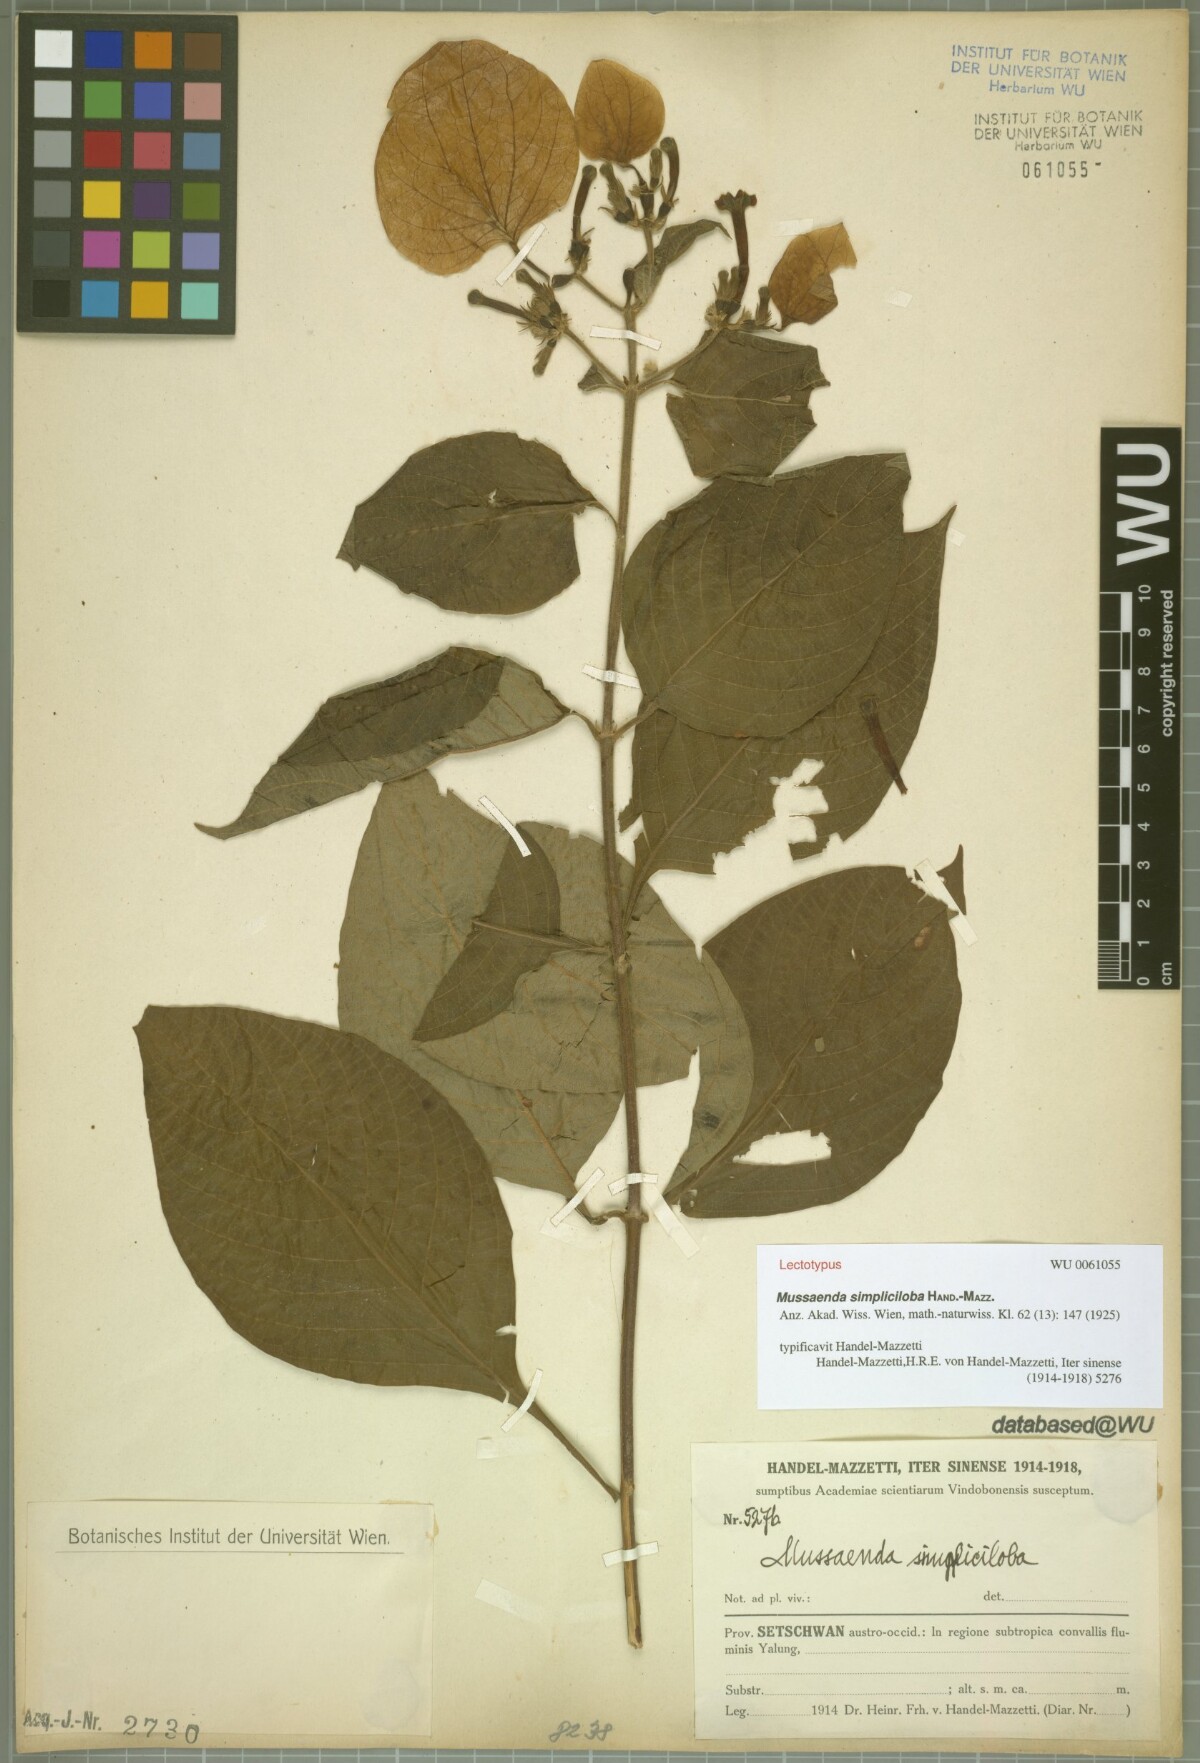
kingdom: Plantae
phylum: Tracheophyta
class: Magnoliopsida
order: Gentianales
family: Rubiaceae
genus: Mussaenda
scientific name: Mussaenda simpliciloba
